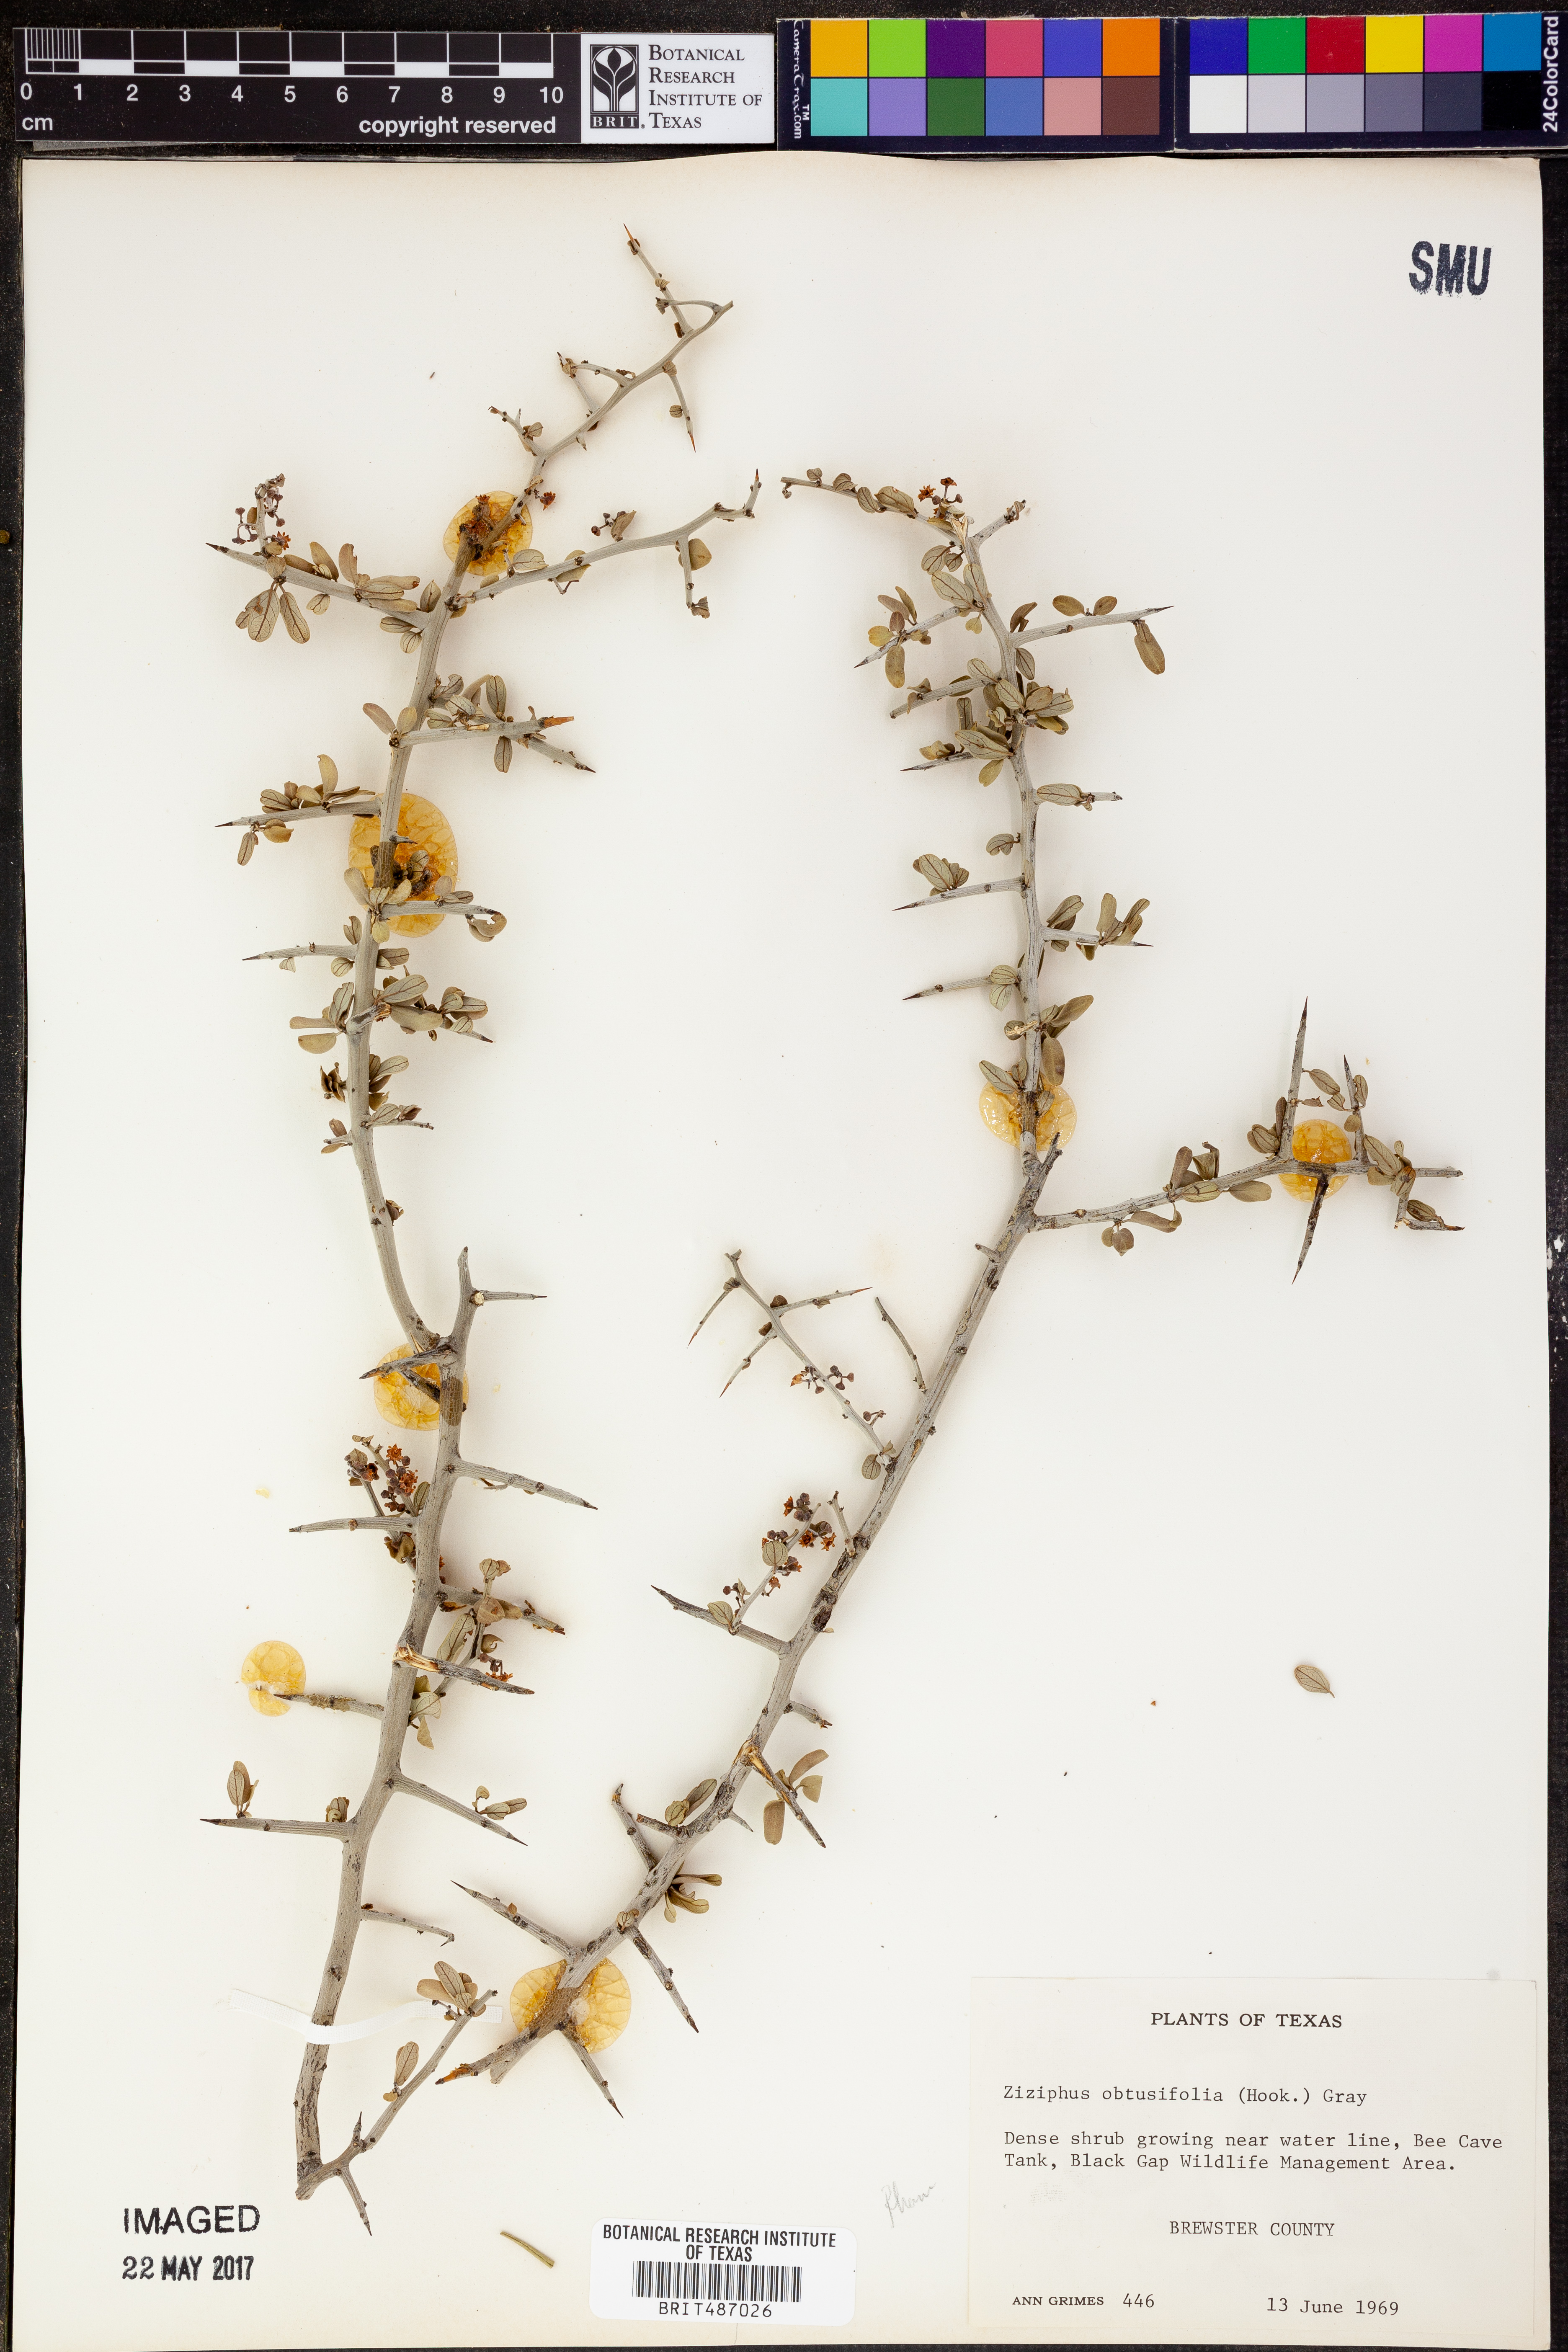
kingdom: Plantae
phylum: Tracheophyta
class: Magnoliopsida
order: Rosales
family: Rhamnaceae
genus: Sarcomphalus
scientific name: Sarcomphalus obtusifolius
